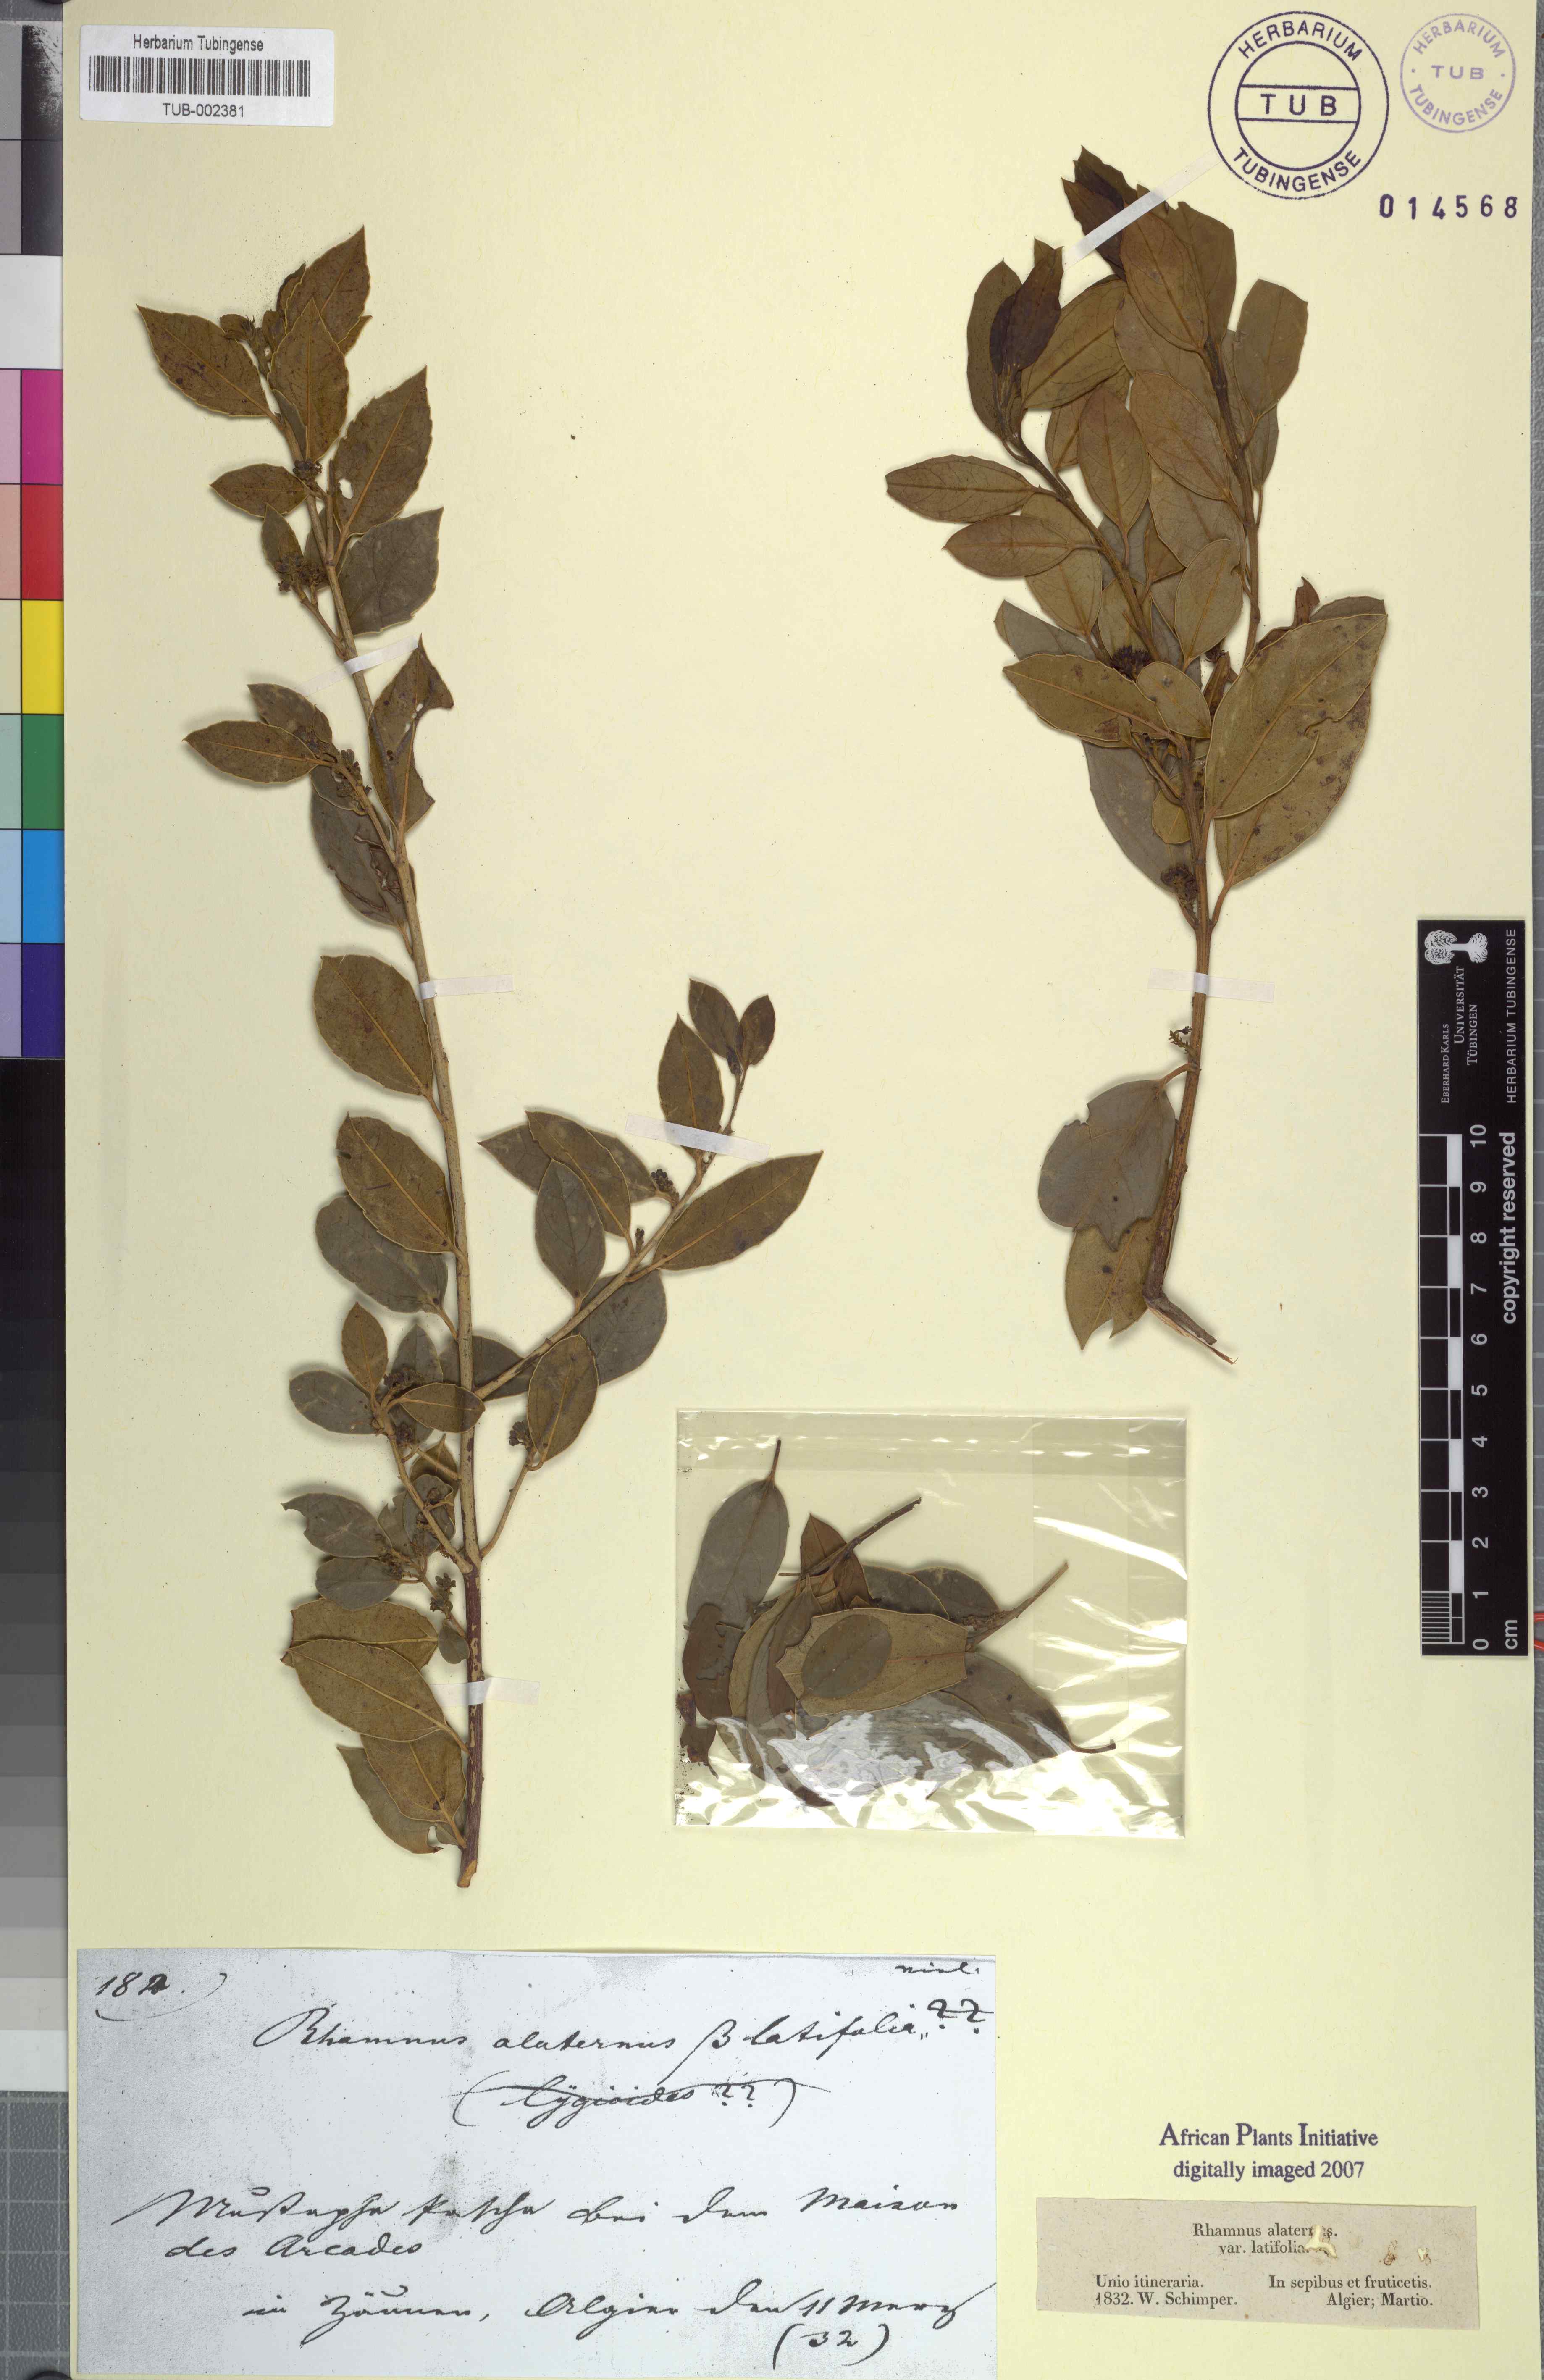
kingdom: Plantae
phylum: Tracheophyta
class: Magnoliopsida
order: Rosales
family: Rhamnaceae
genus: Rhamnus
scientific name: Rhamnus alaternus
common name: Mediterranean buckthorn
